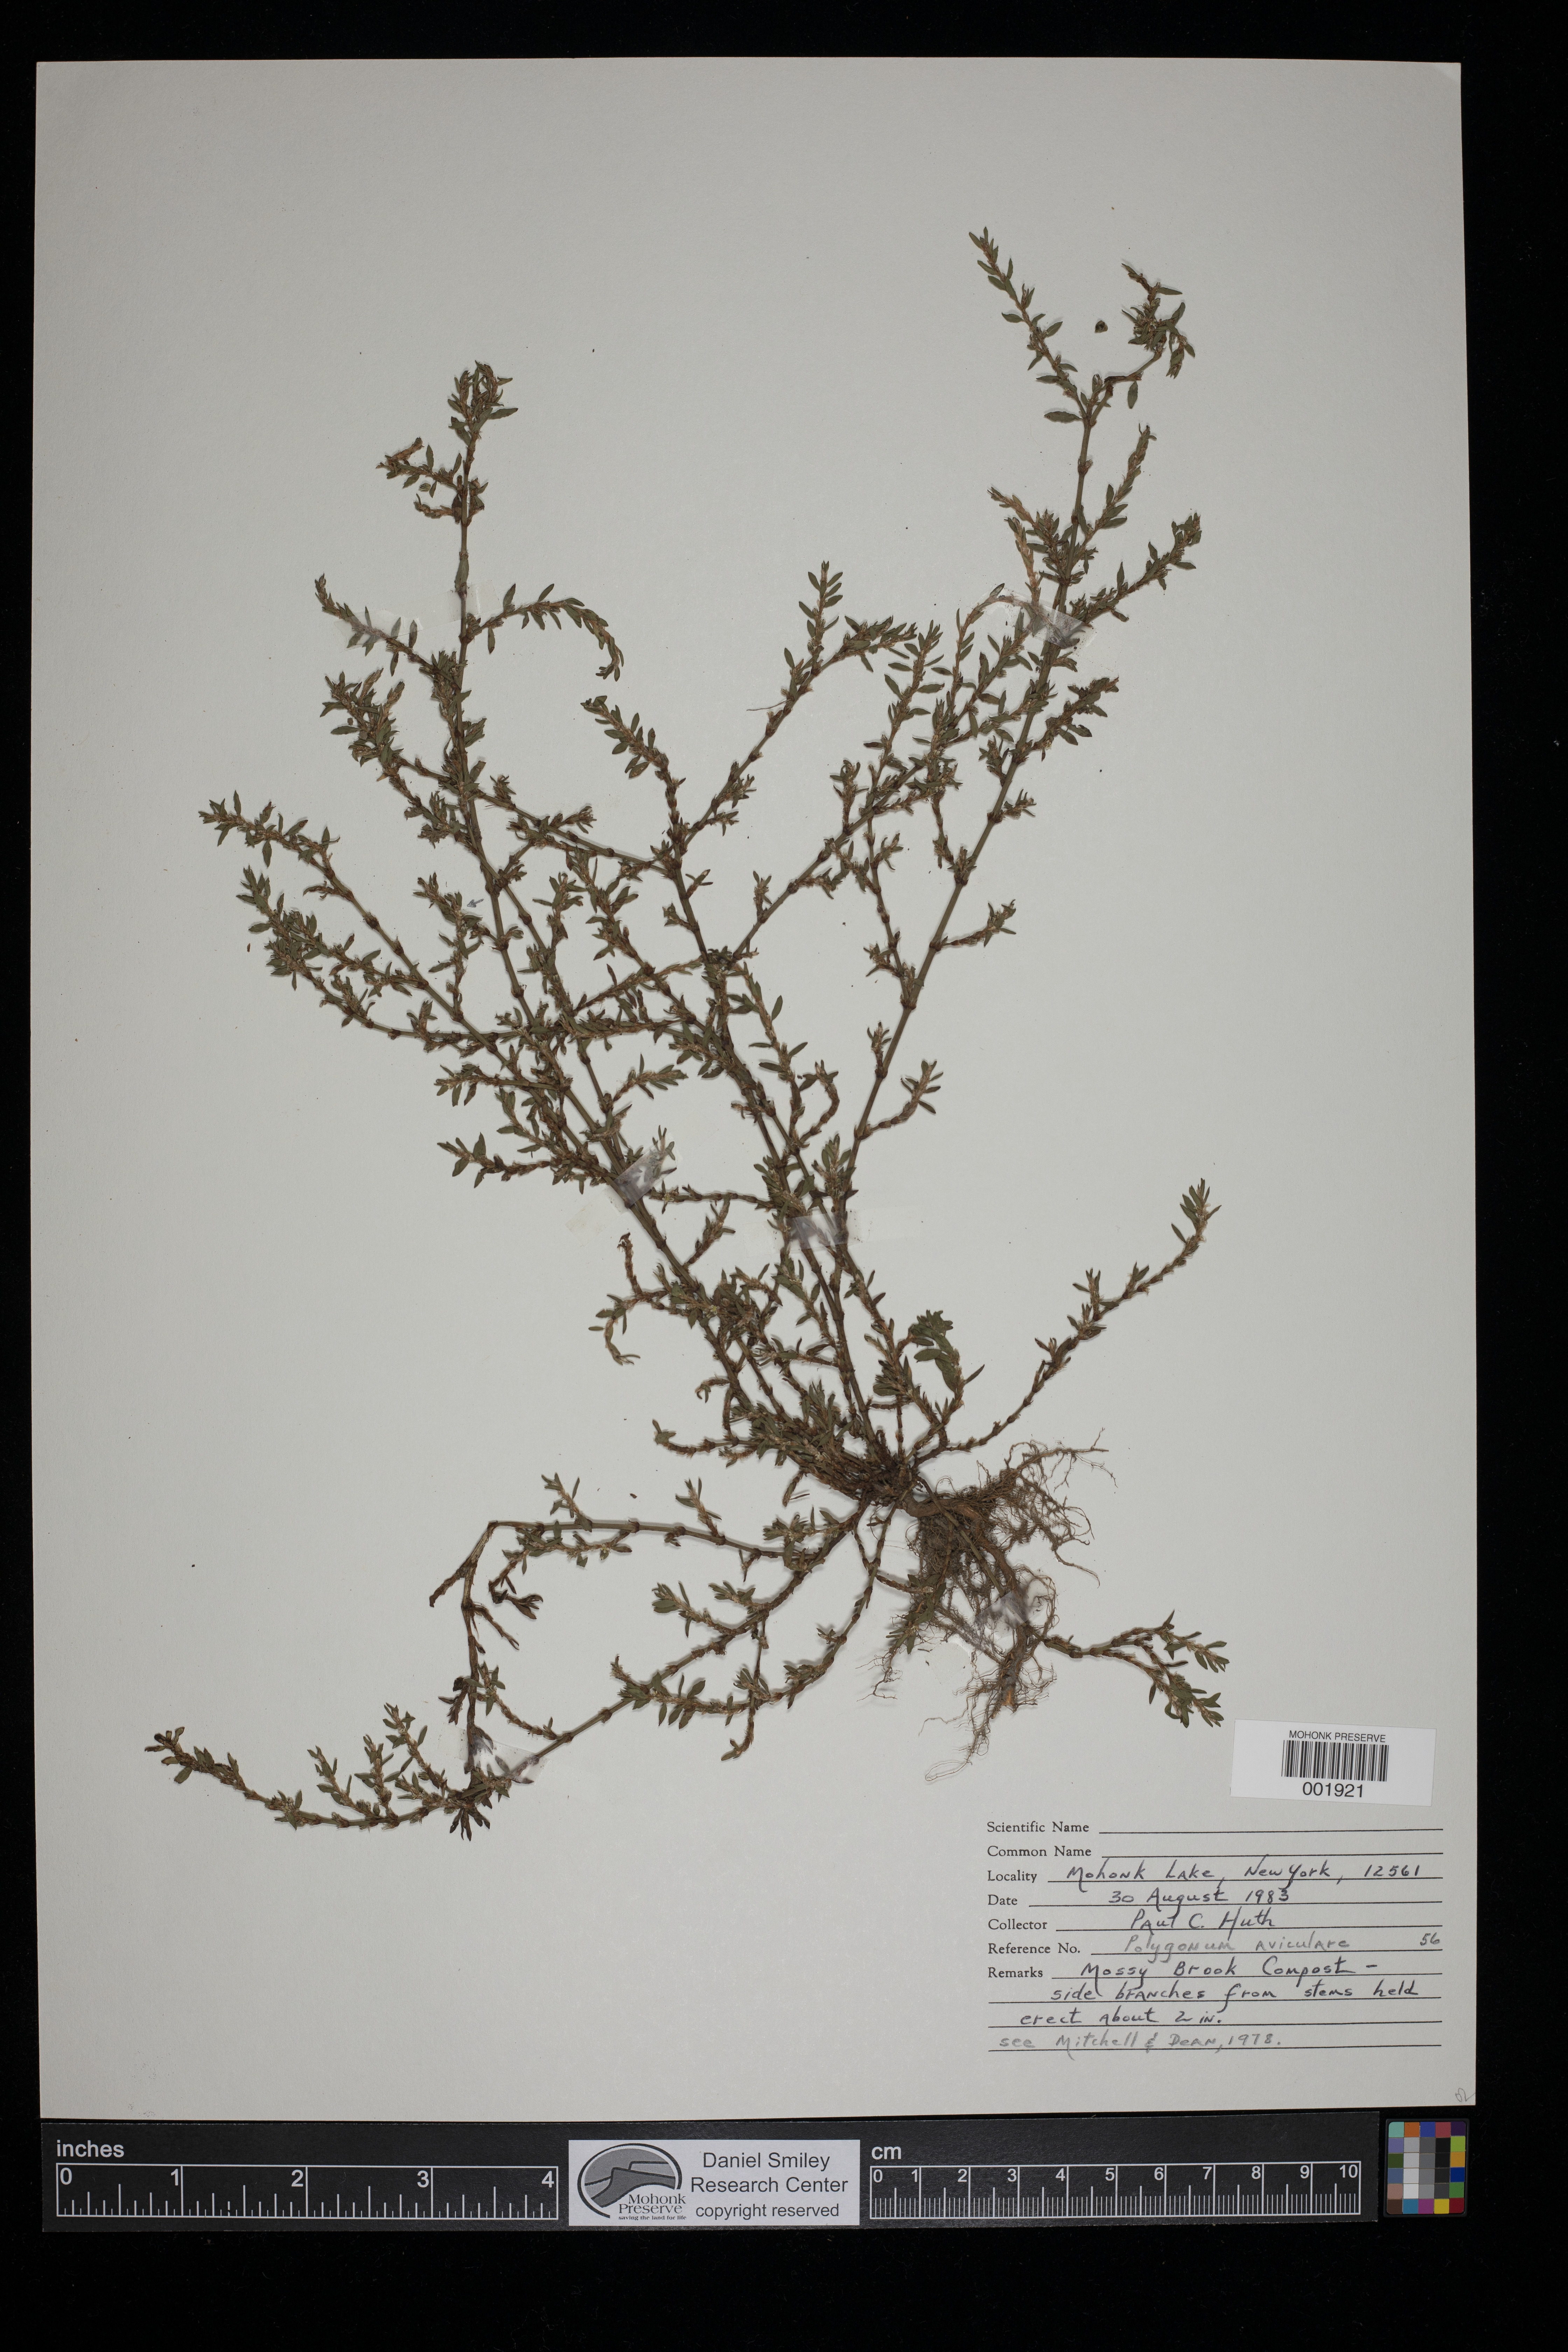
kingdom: Plantae
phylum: Tracheophyta
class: Magnoliopsida
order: Caryophyllales
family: Polygonaceae
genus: Polygonum
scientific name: Polygonum aviculare
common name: Prostrate knotweed
